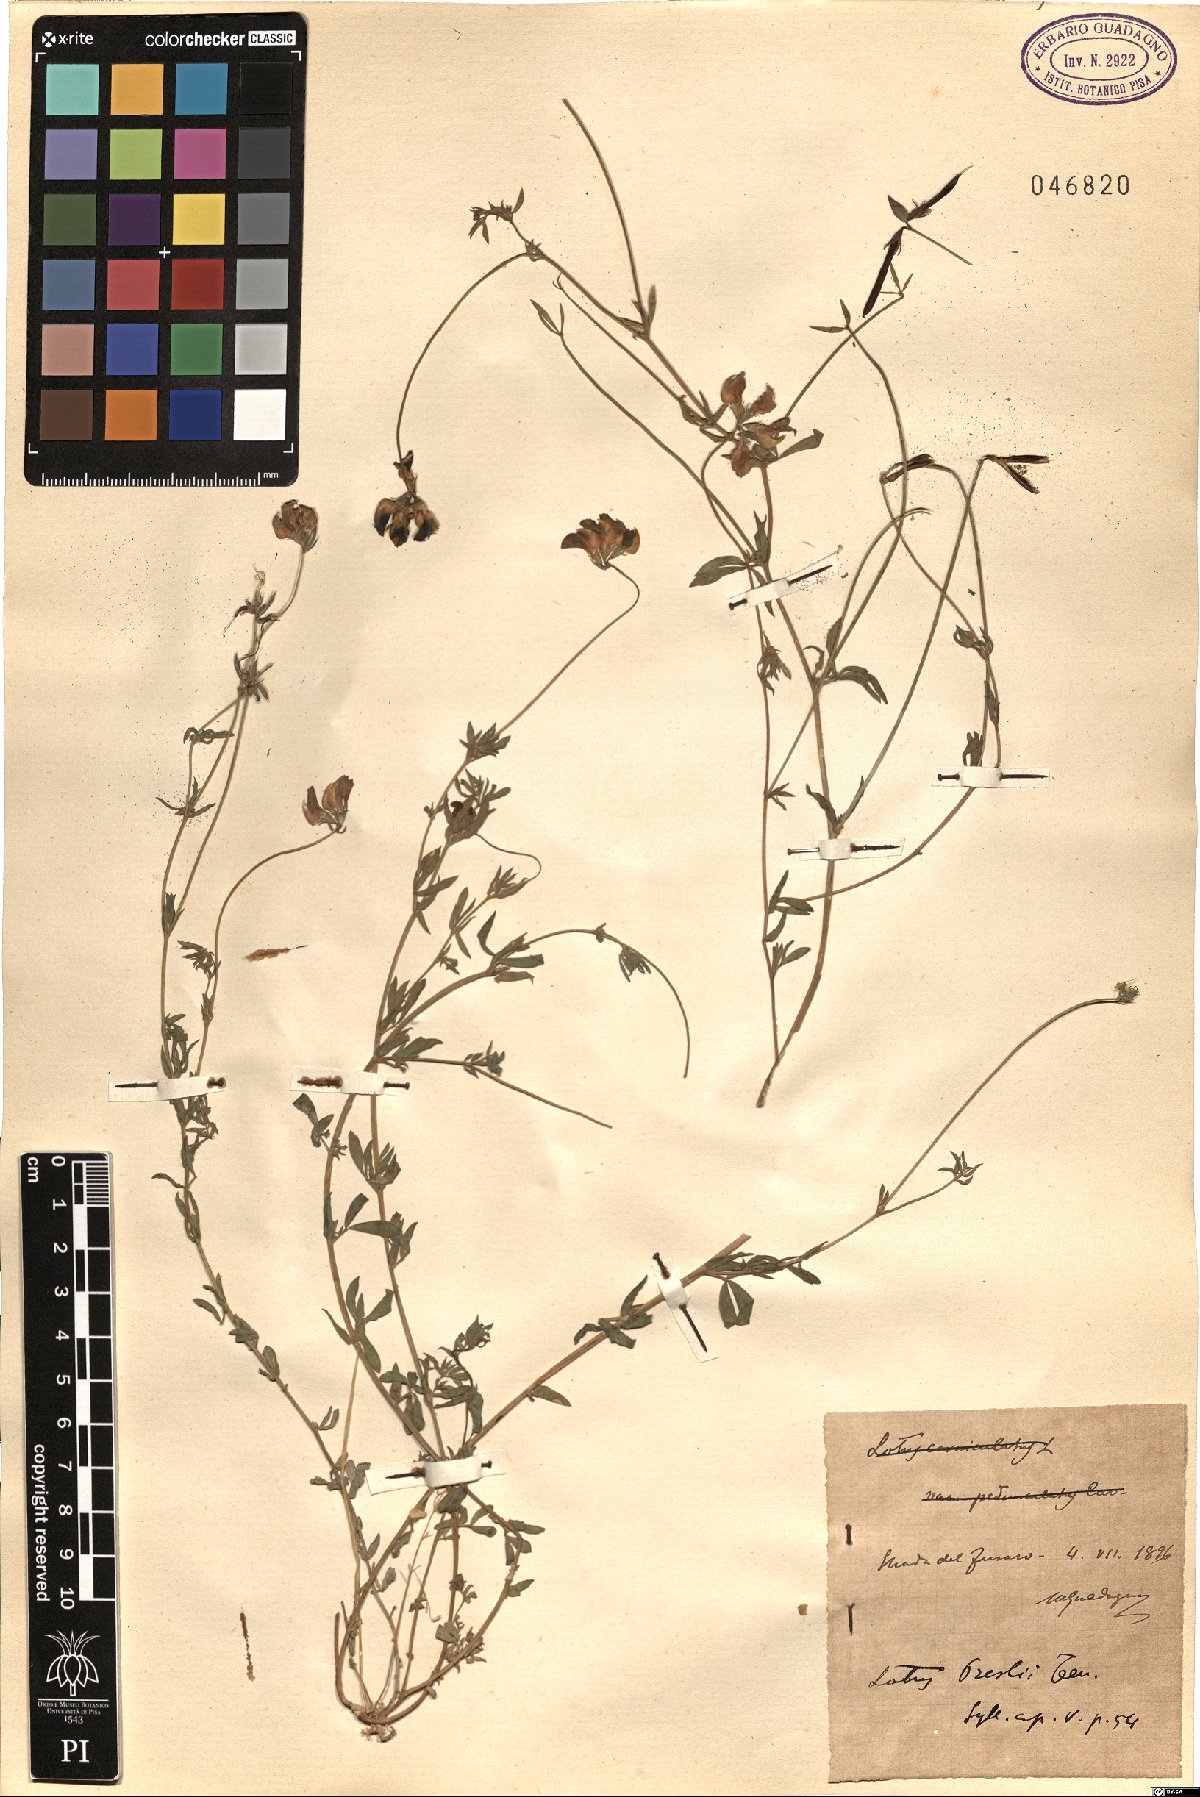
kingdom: Plantae
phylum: Tracheophyta
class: Magnoliopsida
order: Fabales
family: Fabaceae
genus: Lotus
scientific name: Lotus corniculatus
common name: Common bird's-foot-trefoil
